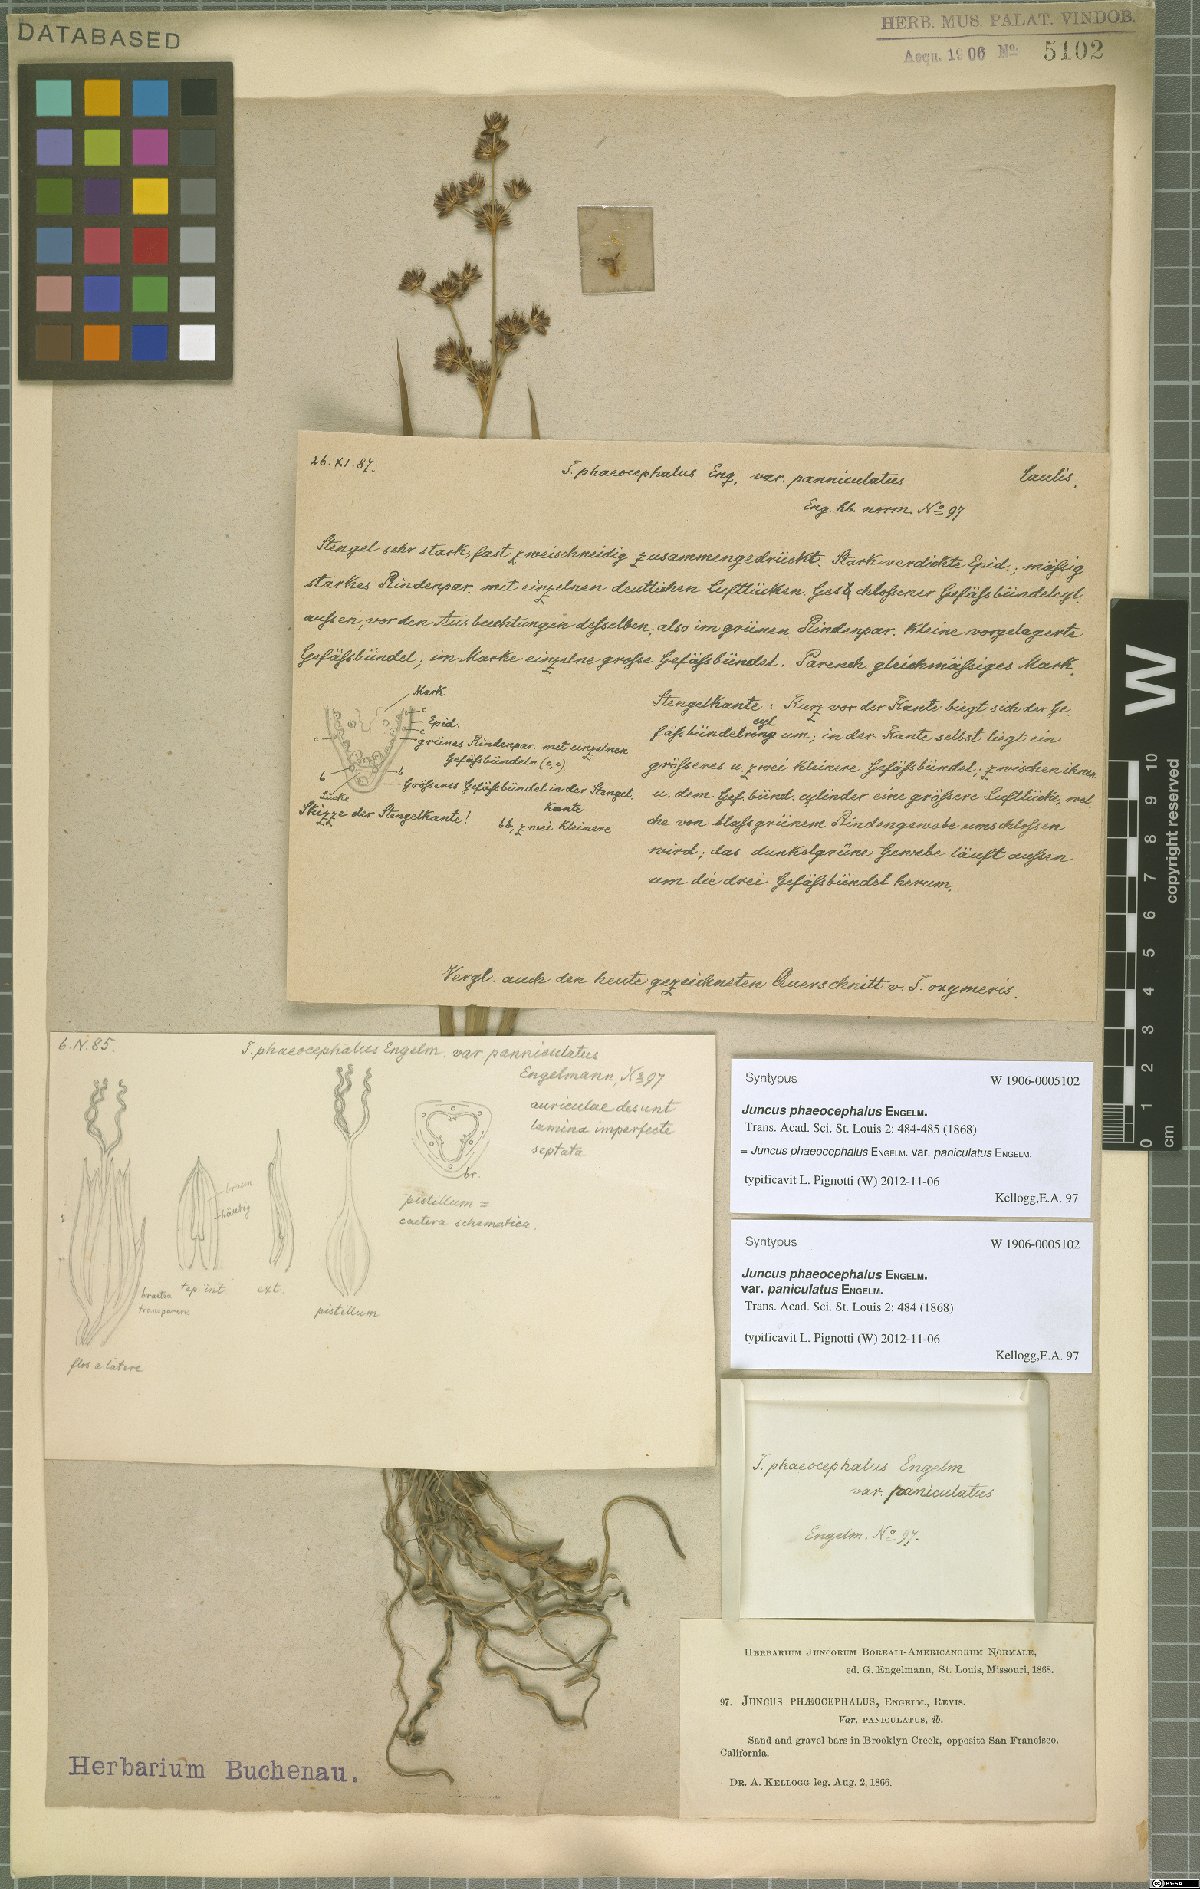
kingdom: Plantae
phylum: Tracheophyta
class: Liliopsida
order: Poales
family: Juncaceae
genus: Juncus
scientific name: Juncus phaeocephalus
